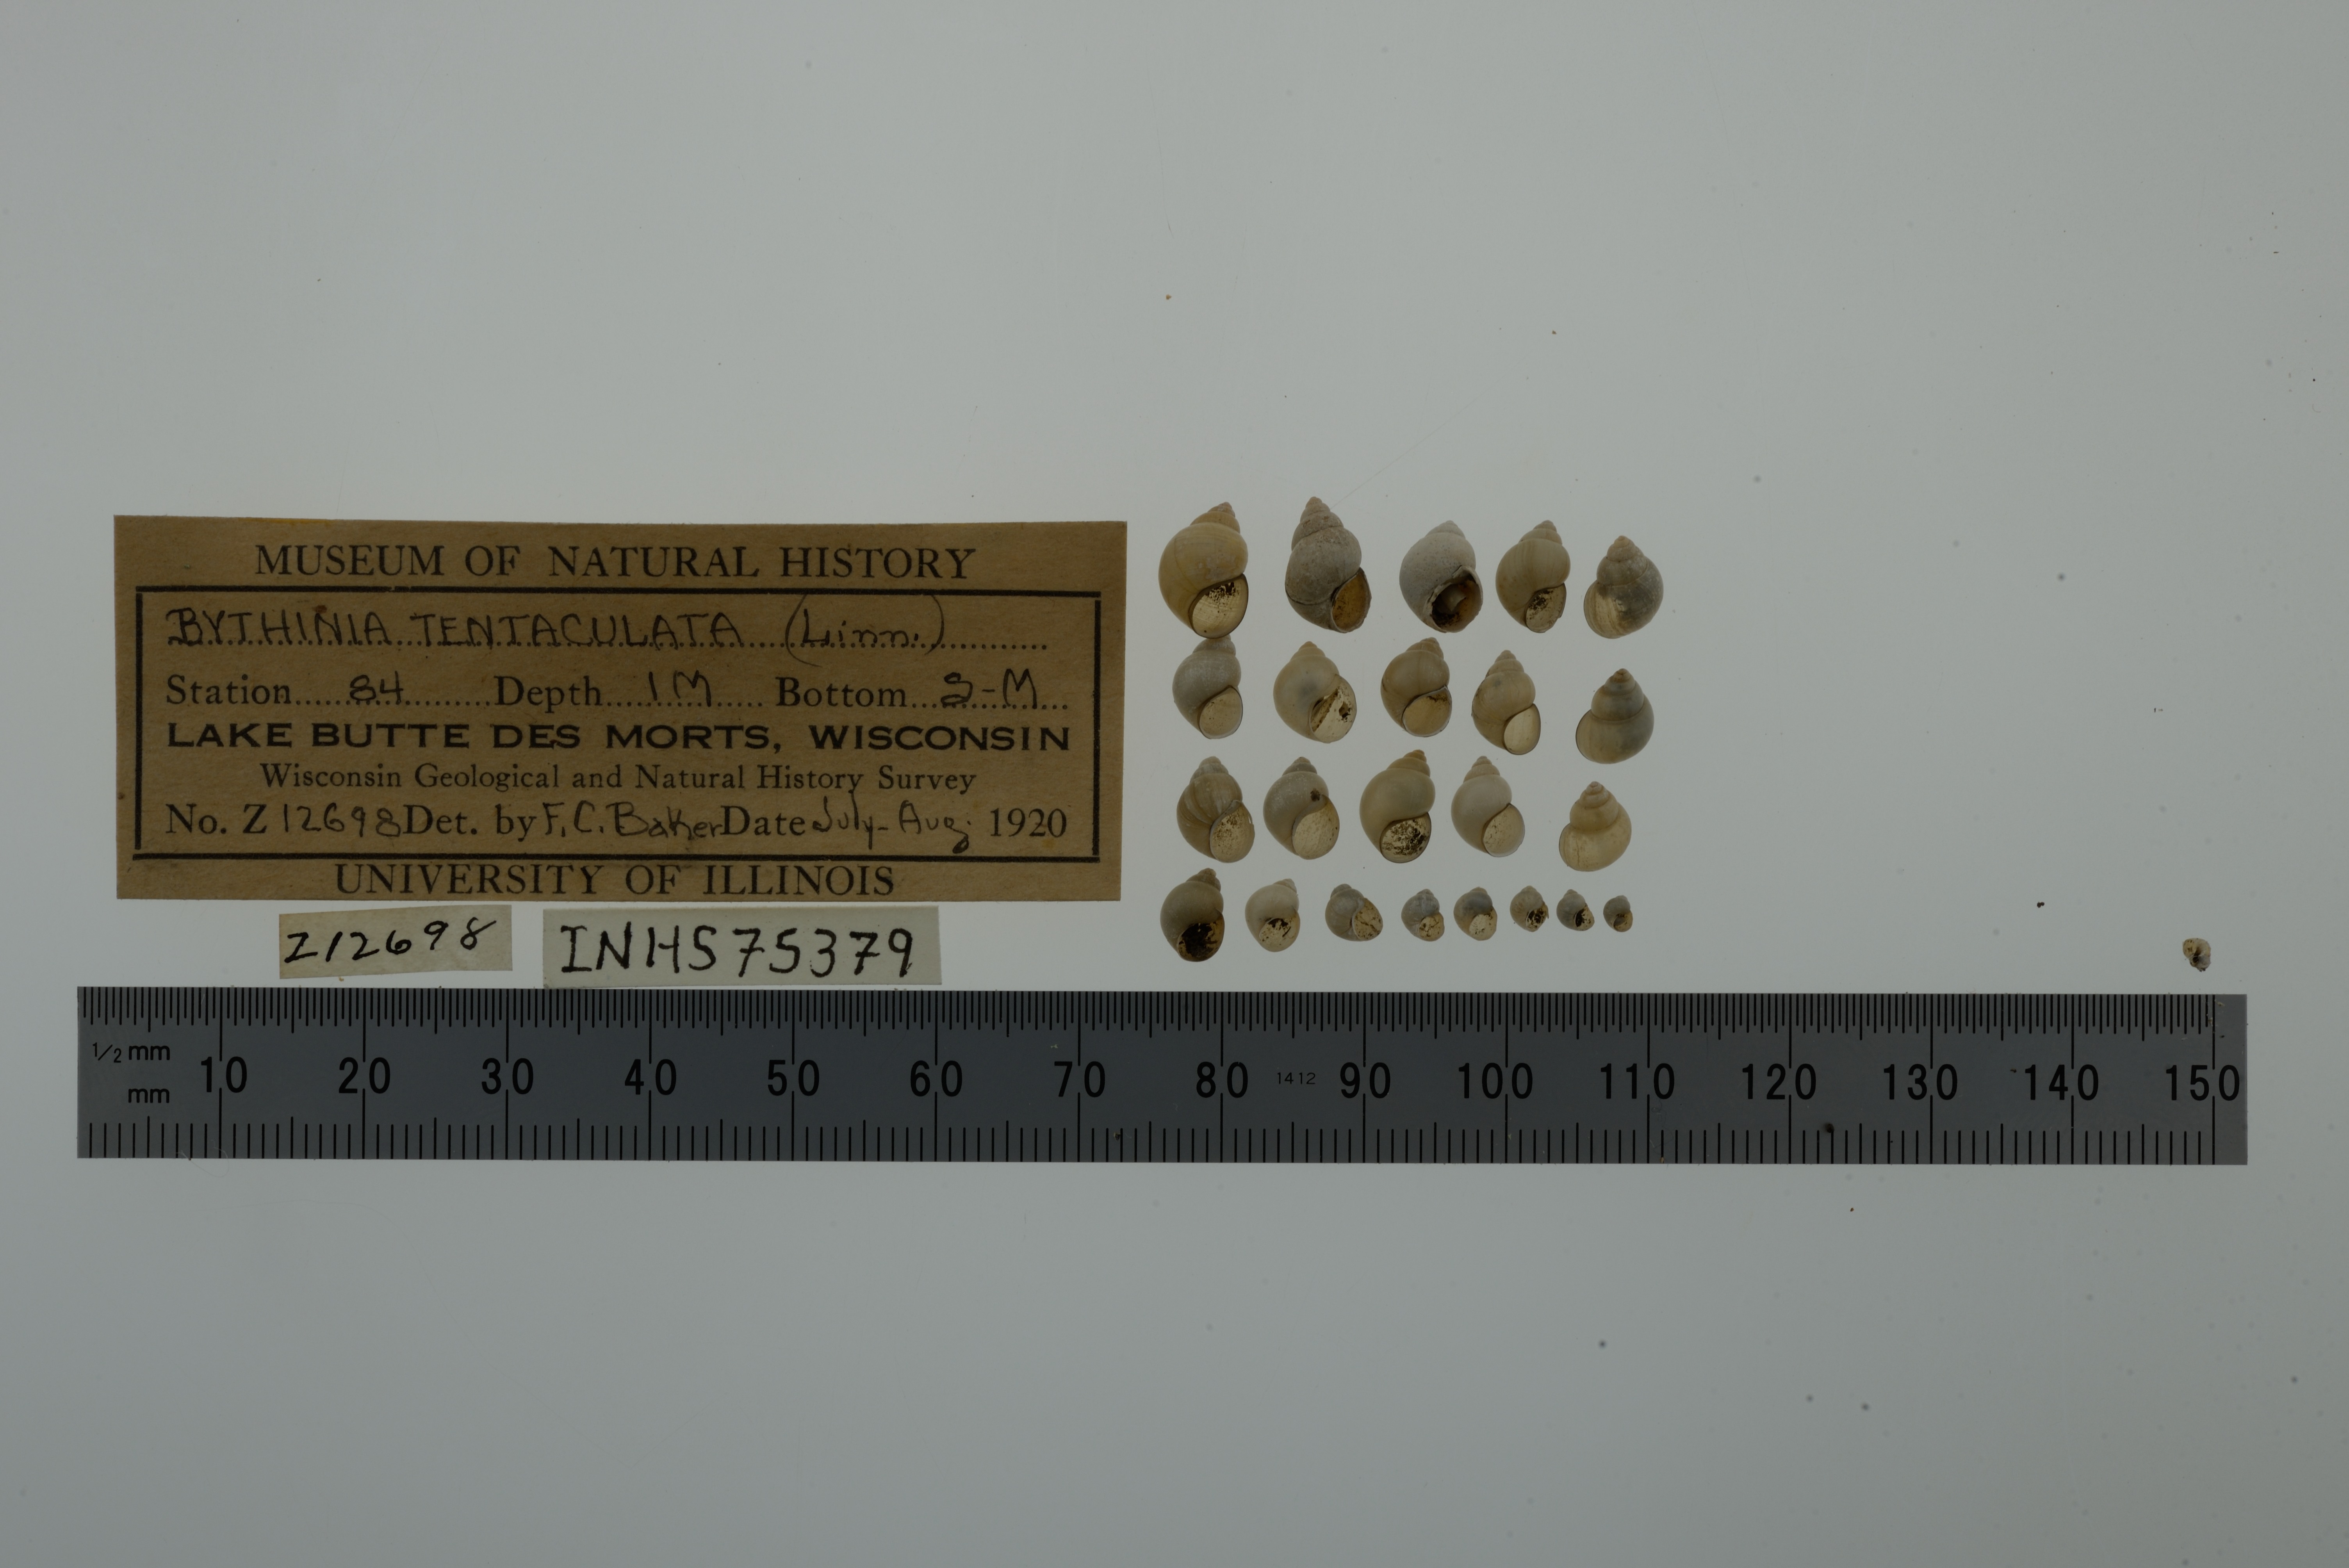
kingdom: Animalia
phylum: Mollusca
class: Gastropoda
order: Littorinimorpha
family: Bithyniidae
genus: Bithynia
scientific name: Bithynia tentaculata
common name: Common bithynia
